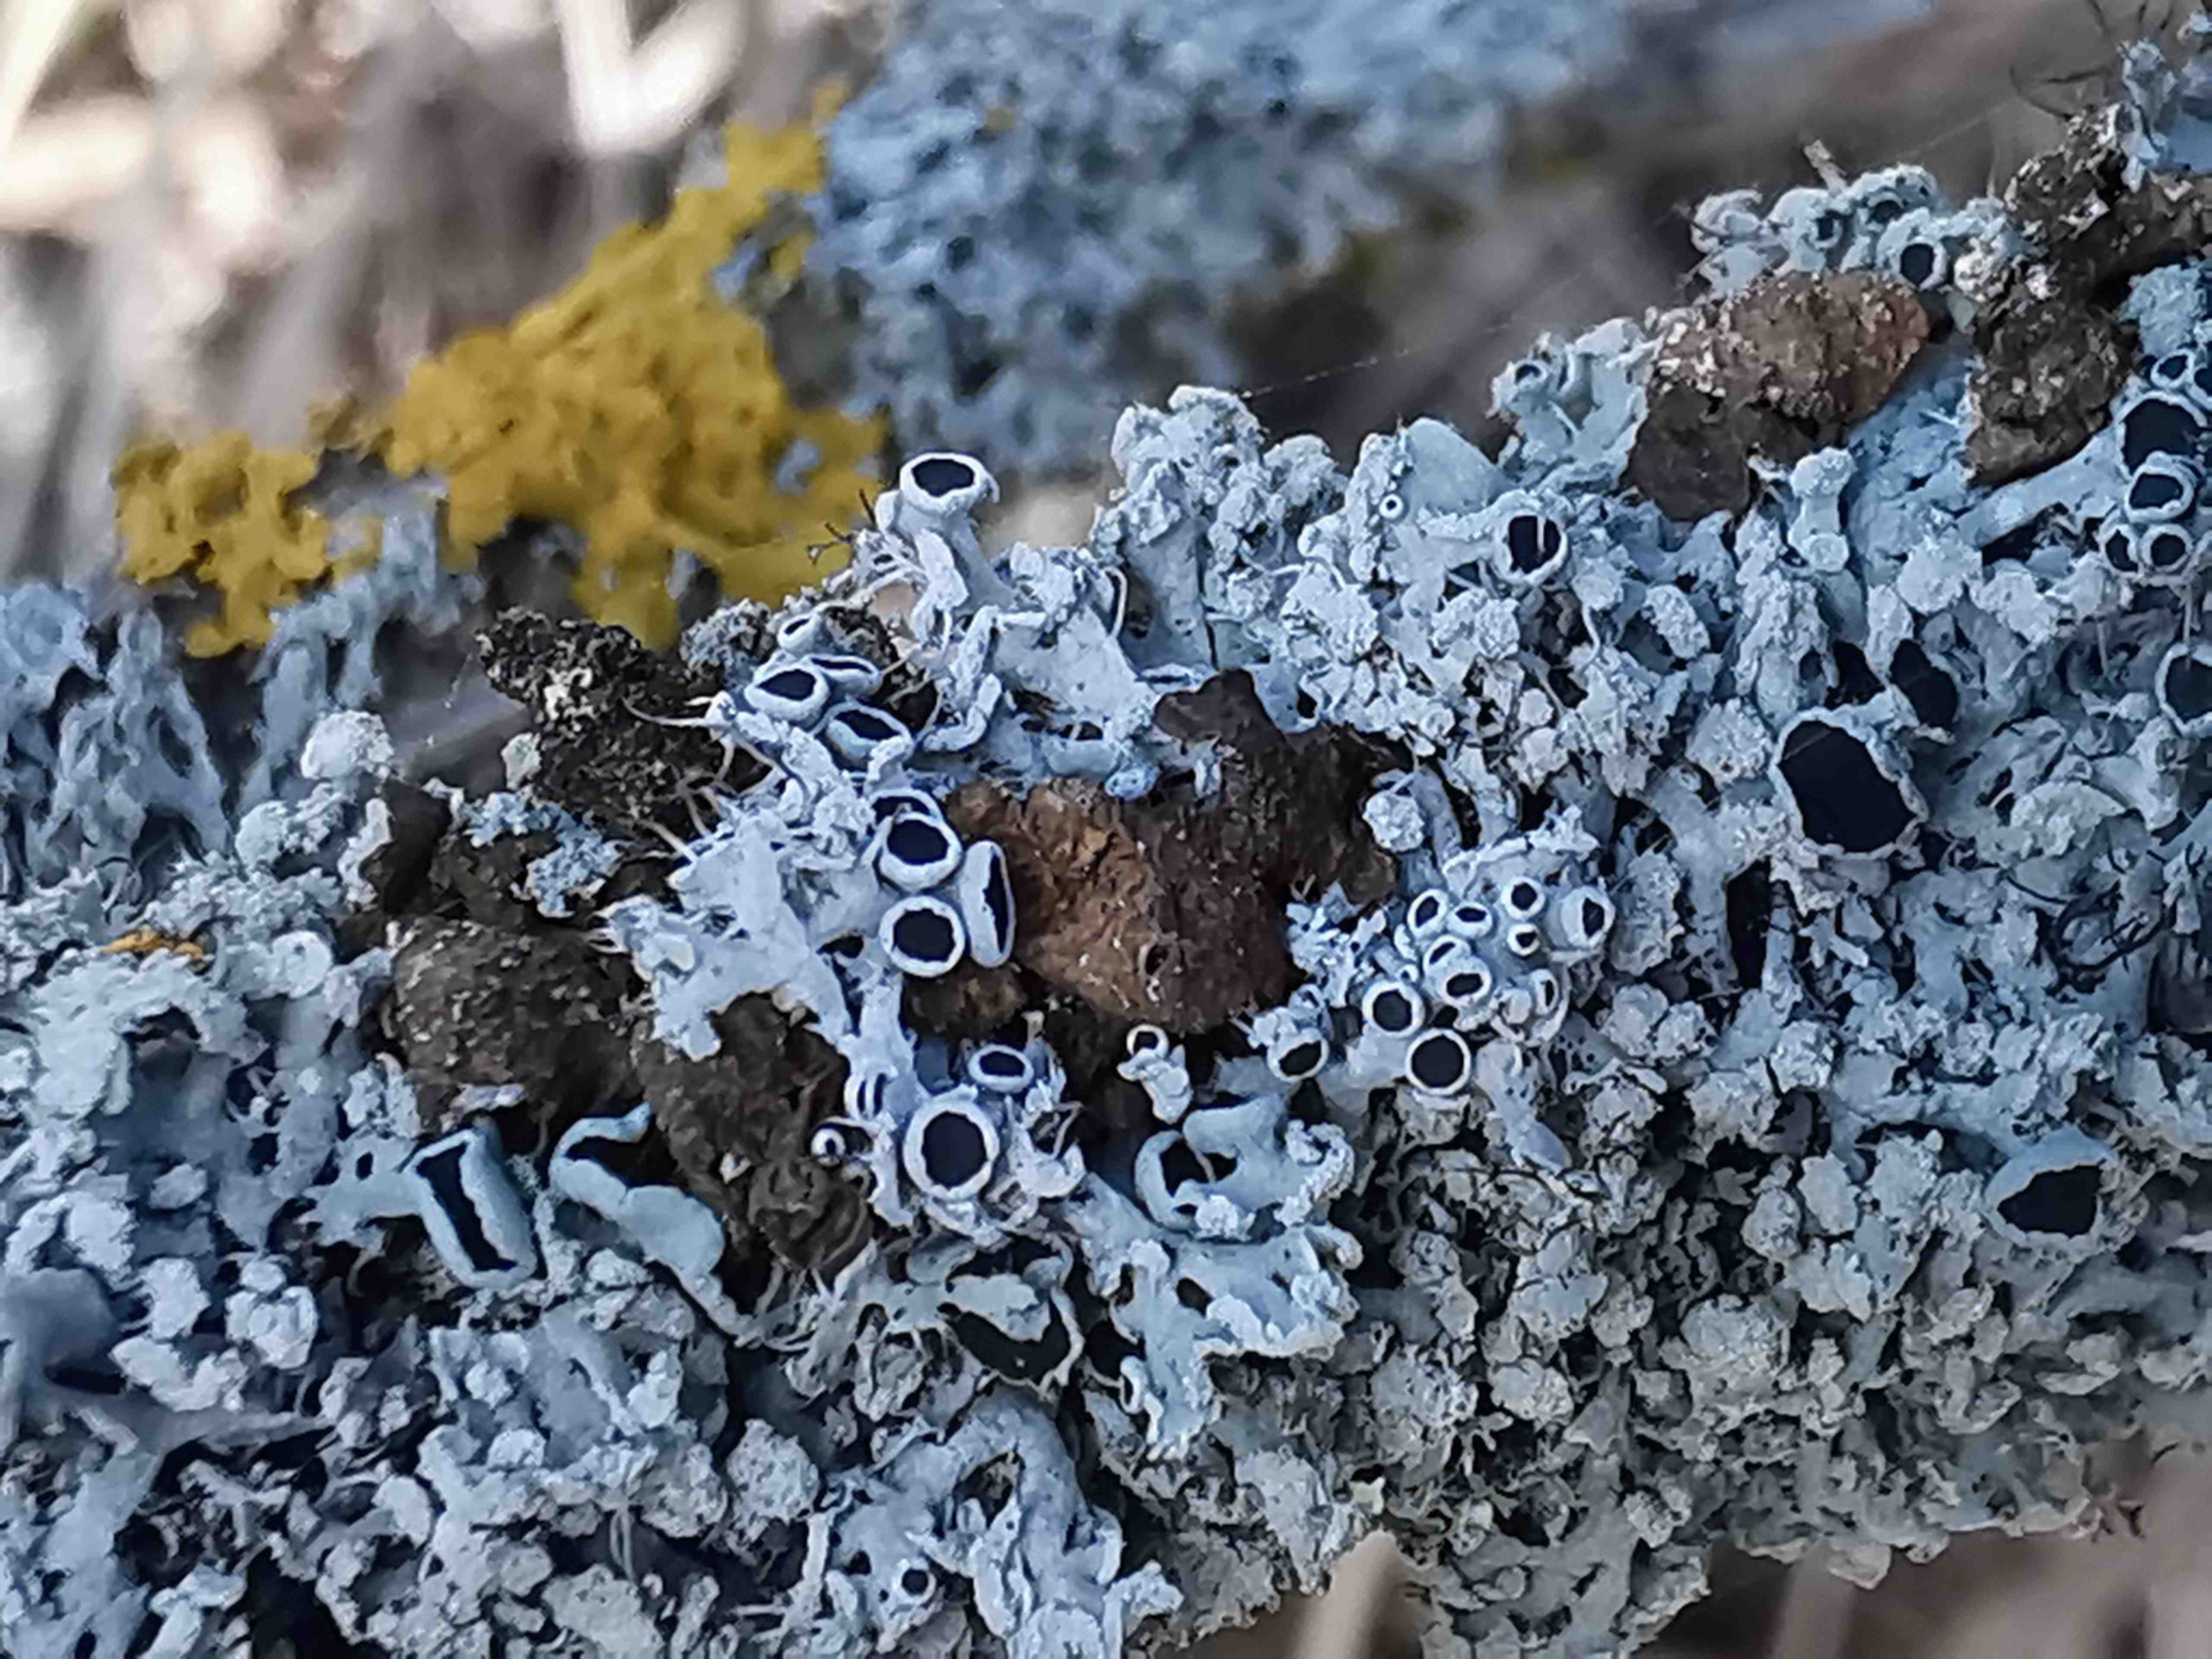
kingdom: Fungi
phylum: Ascomycota
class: Lecanoromycetes
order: Caliciales
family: Physciaceae
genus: Physcia
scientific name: Physcia tenella
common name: spæd rosetlav
